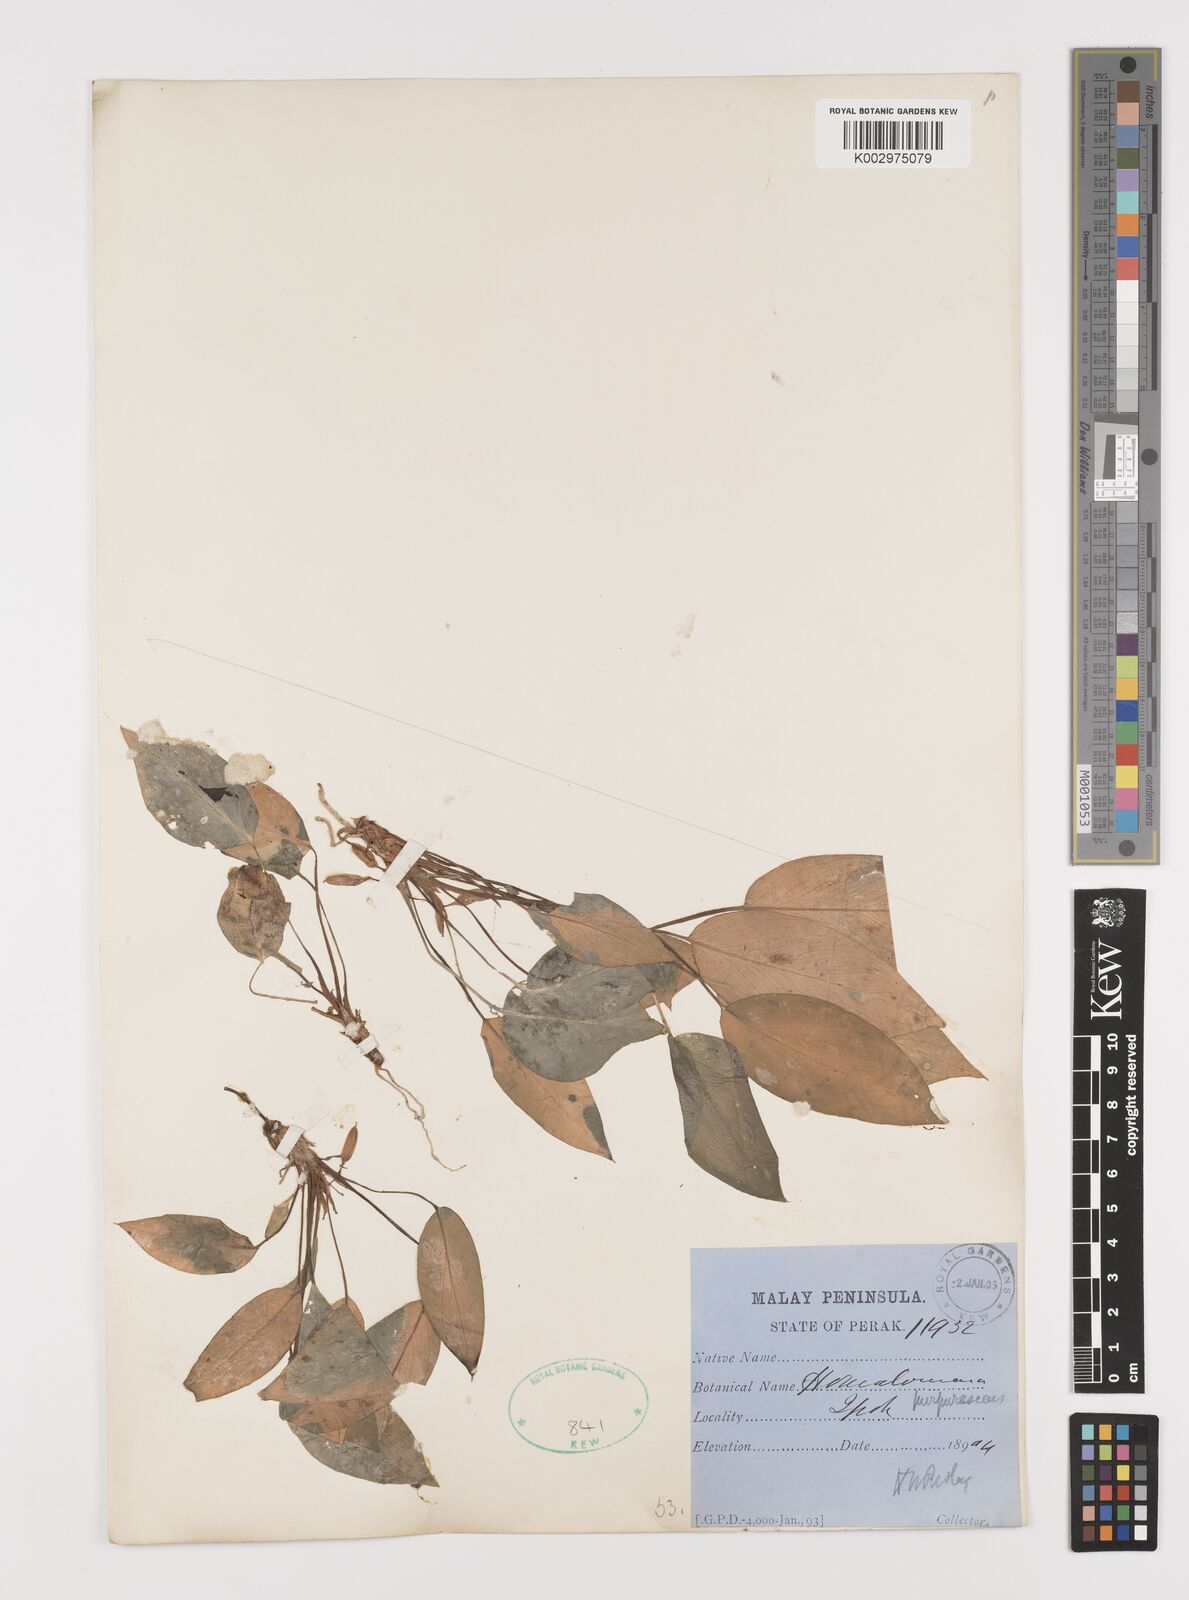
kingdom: Plantae
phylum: Tracheophyta
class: Liliopsida
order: Alismatales
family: Araceae
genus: Homalomena
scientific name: Homalomena humilis
